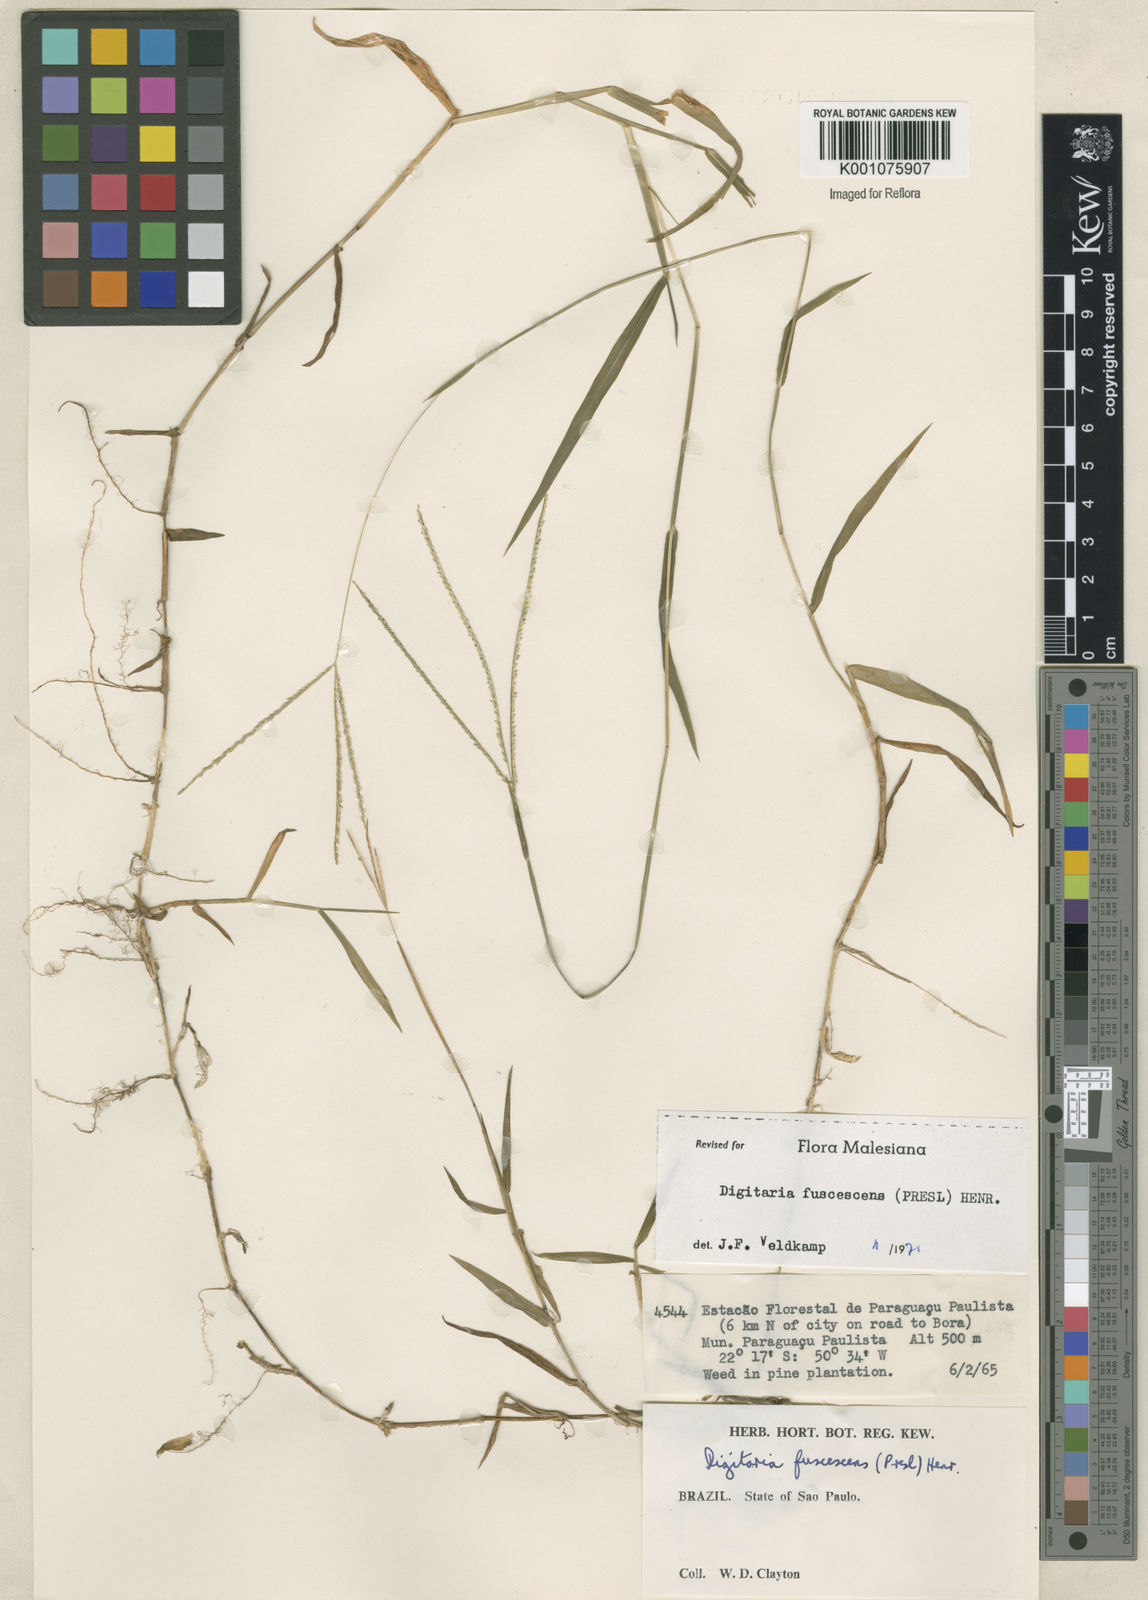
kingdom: Plantae
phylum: Tracheophyta
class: Liliopsida
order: Poales
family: Poaceae
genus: Digitaria
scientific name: Digitaria fuscescens
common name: Yellow crabgrass
